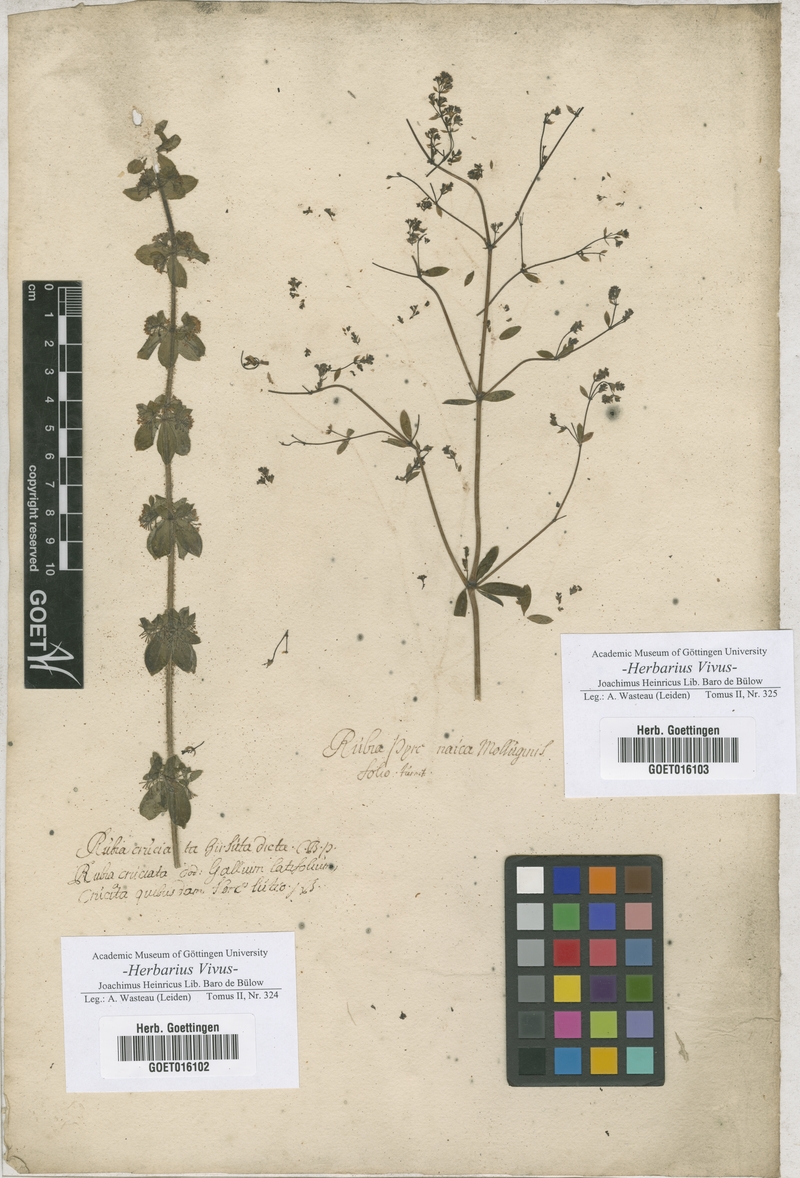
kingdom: Plantae
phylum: Tracheophyta
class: Magnoliopsida
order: Gentianales
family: Rubiaceae
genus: Rubia
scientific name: Rubia
